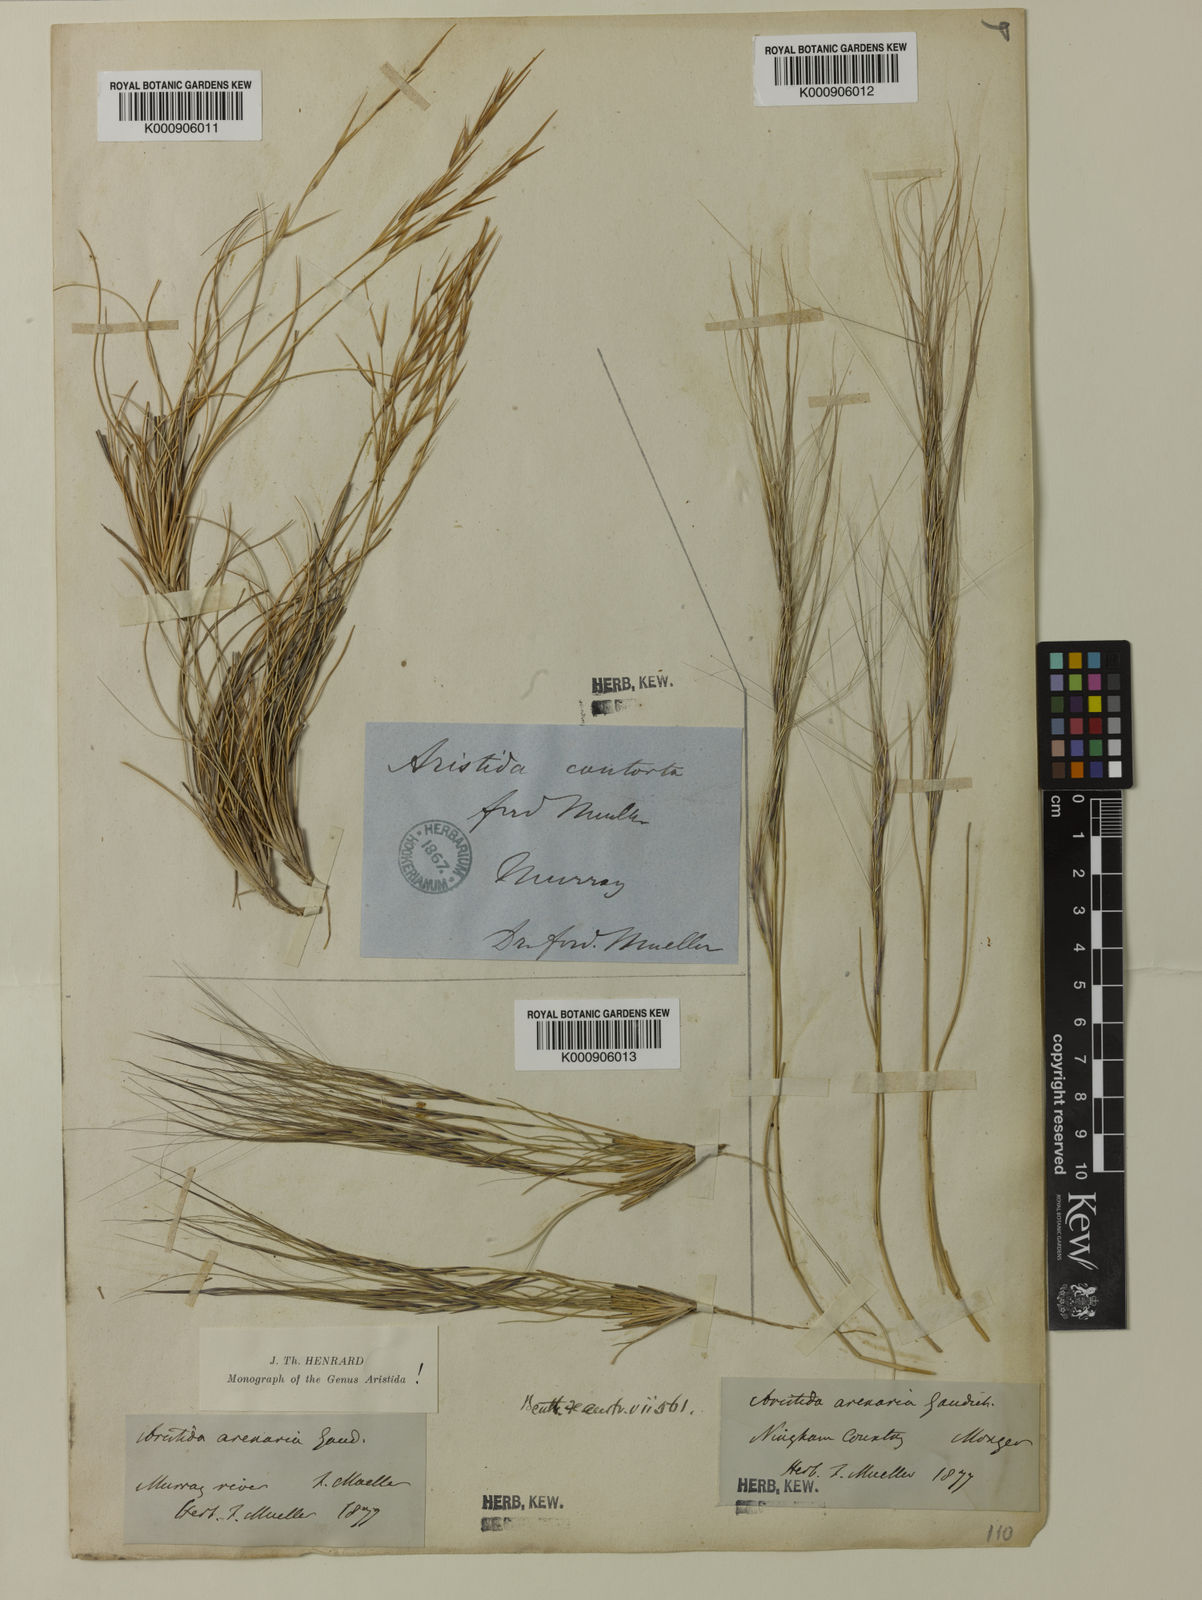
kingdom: Plantae
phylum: Tracheophyta
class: Liliopsida
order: Poales
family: Poaceae
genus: Aristida
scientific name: Aristida contorta
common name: Bunch kerosene grass
